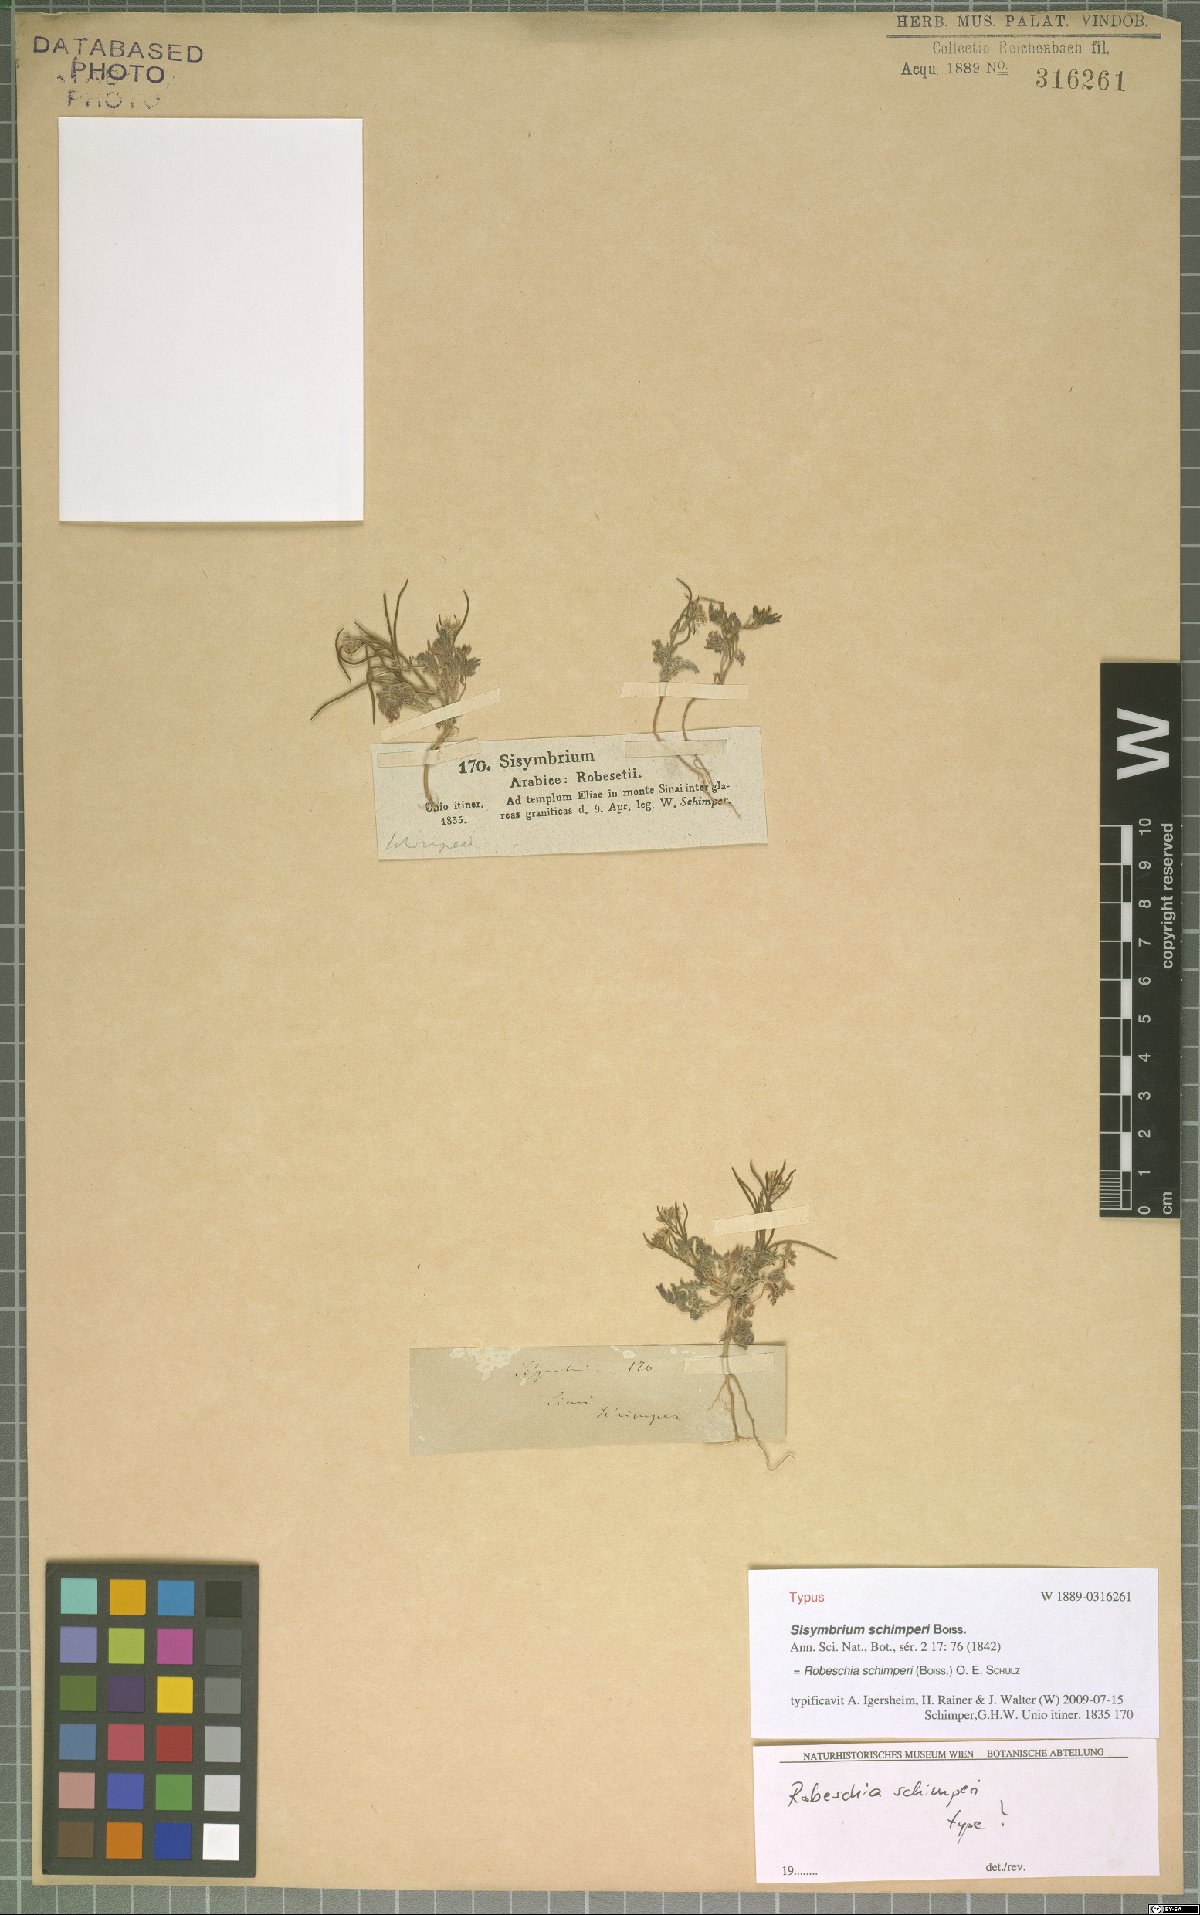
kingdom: Plantae
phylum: Tracheophyta
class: Magnoliopsida
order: Brassicales
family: Brassicaceae
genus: Robeschia
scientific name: Robeschia schimperi
